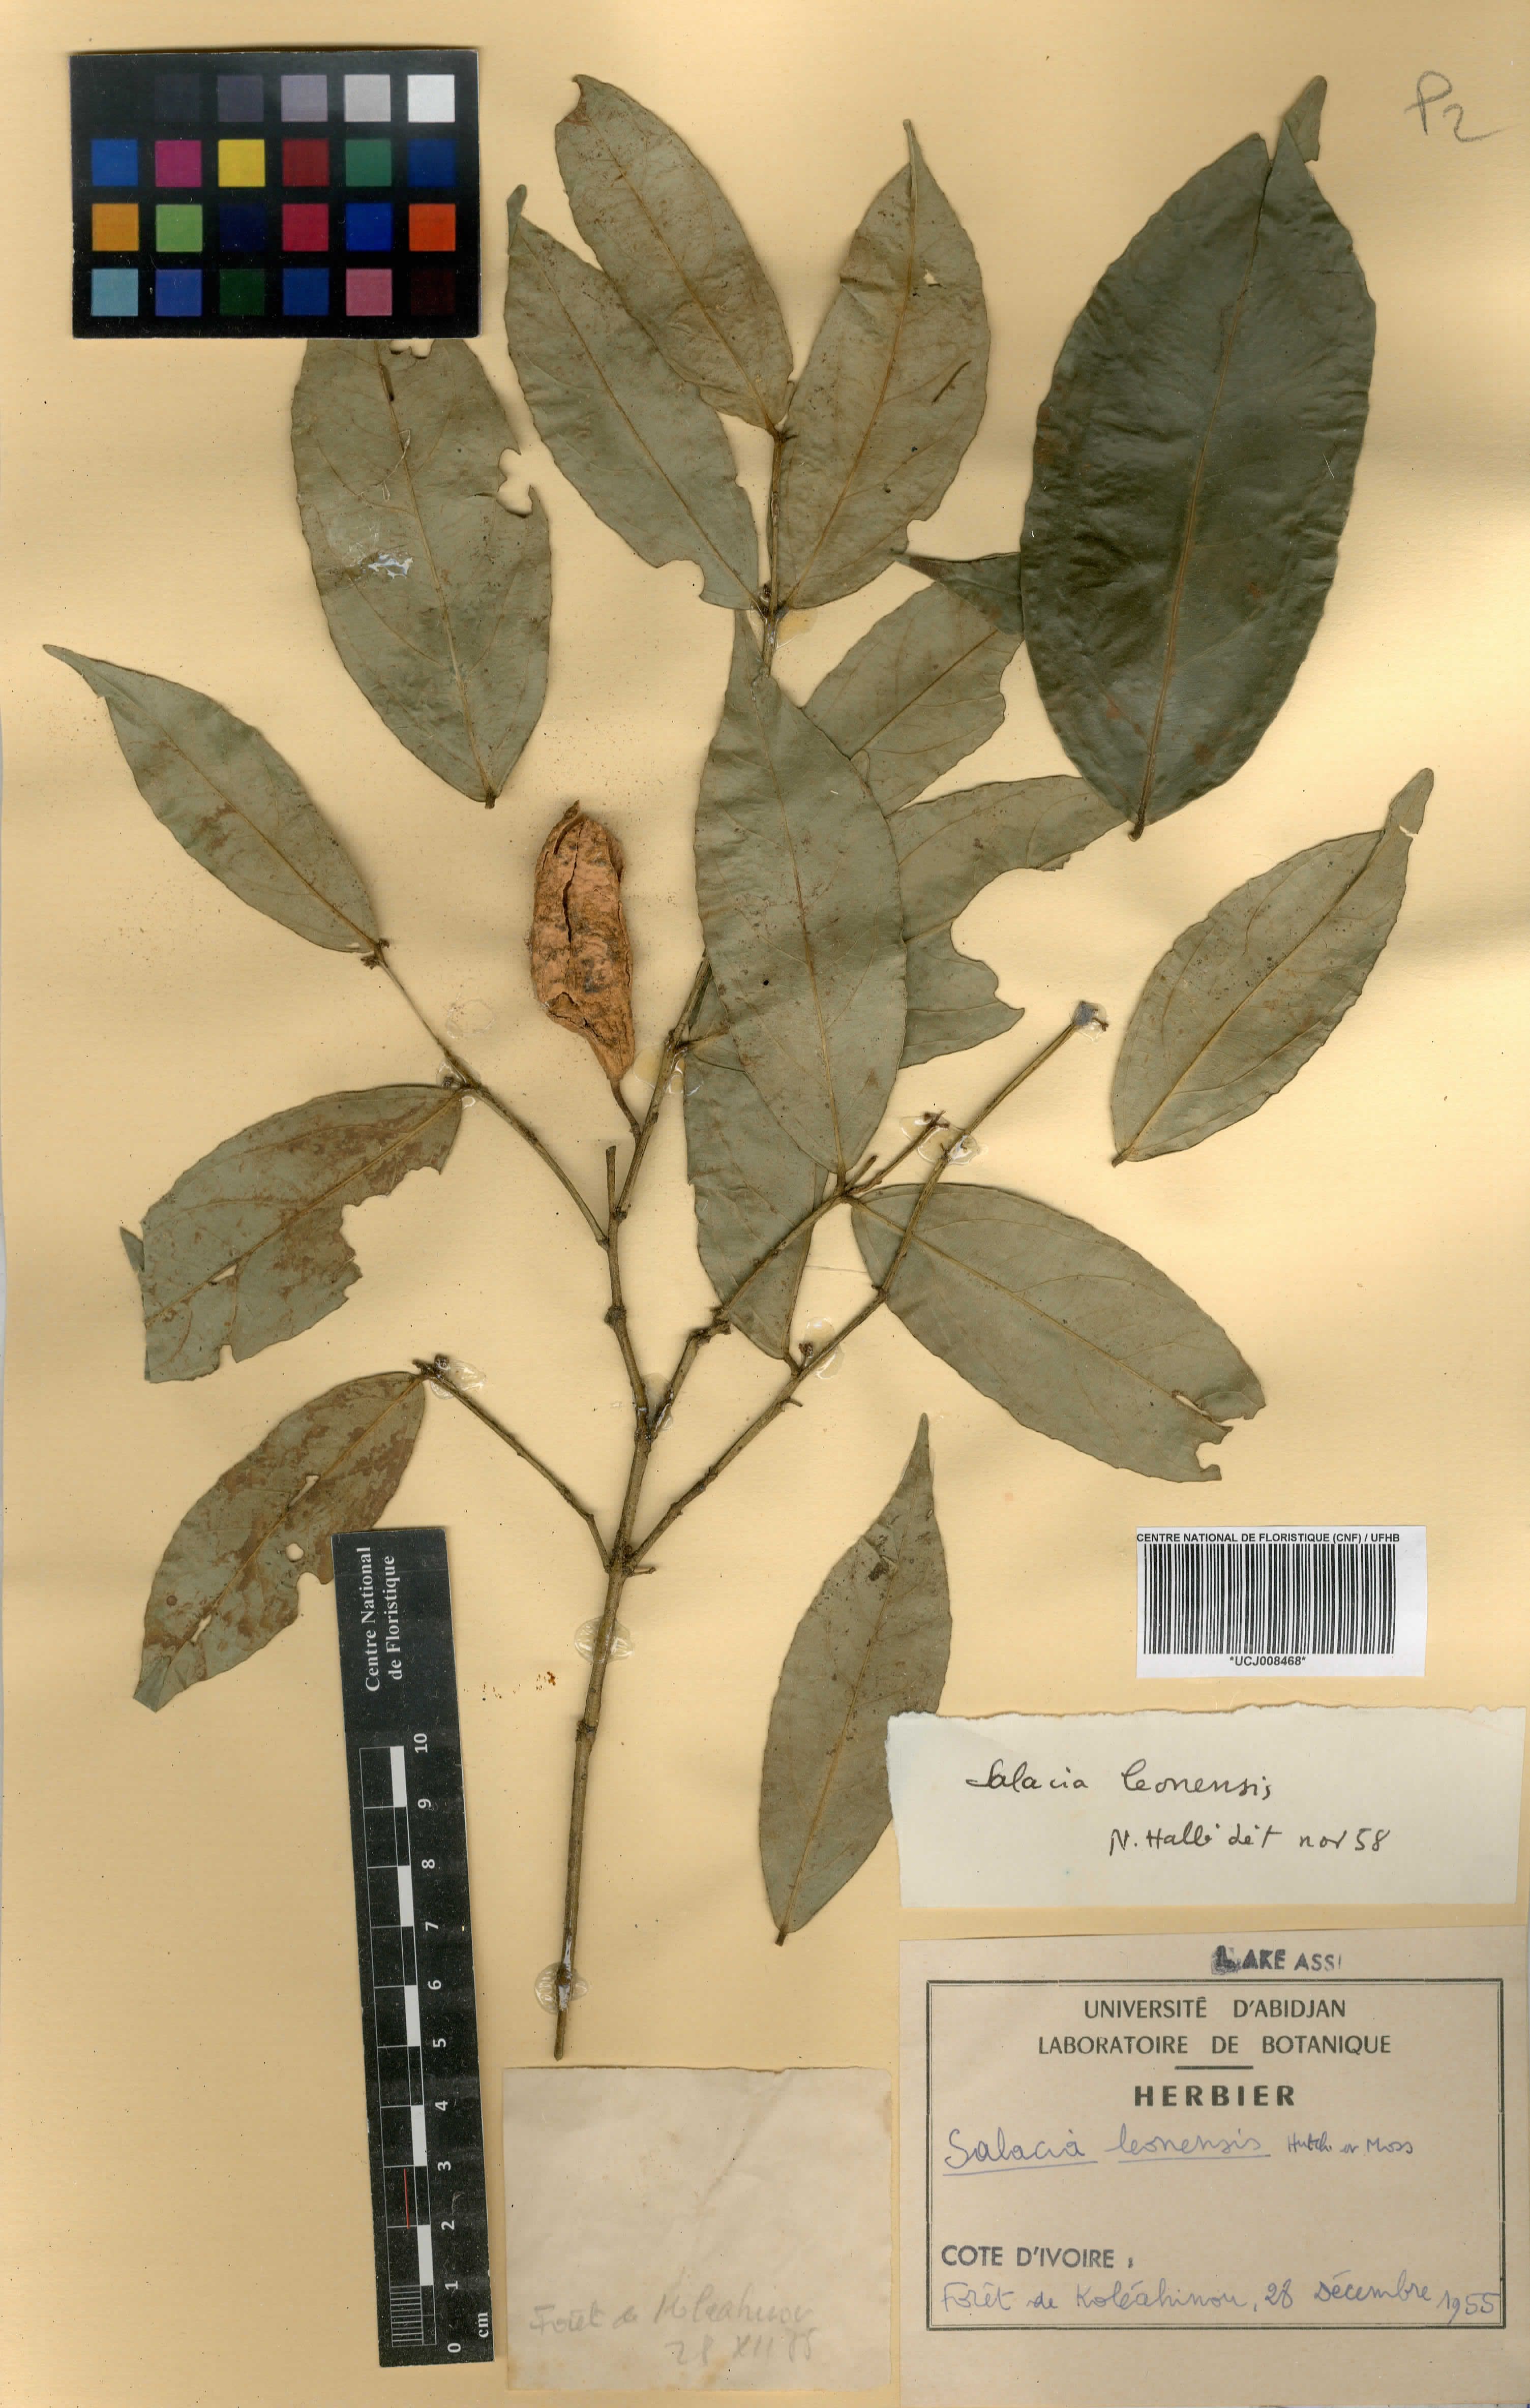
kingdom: Plantae
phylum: Tracheophyta
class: Magnoliopsida
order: Celastrales
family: Celastraceae
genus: Salacia
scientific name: Salacia lehmbachii
